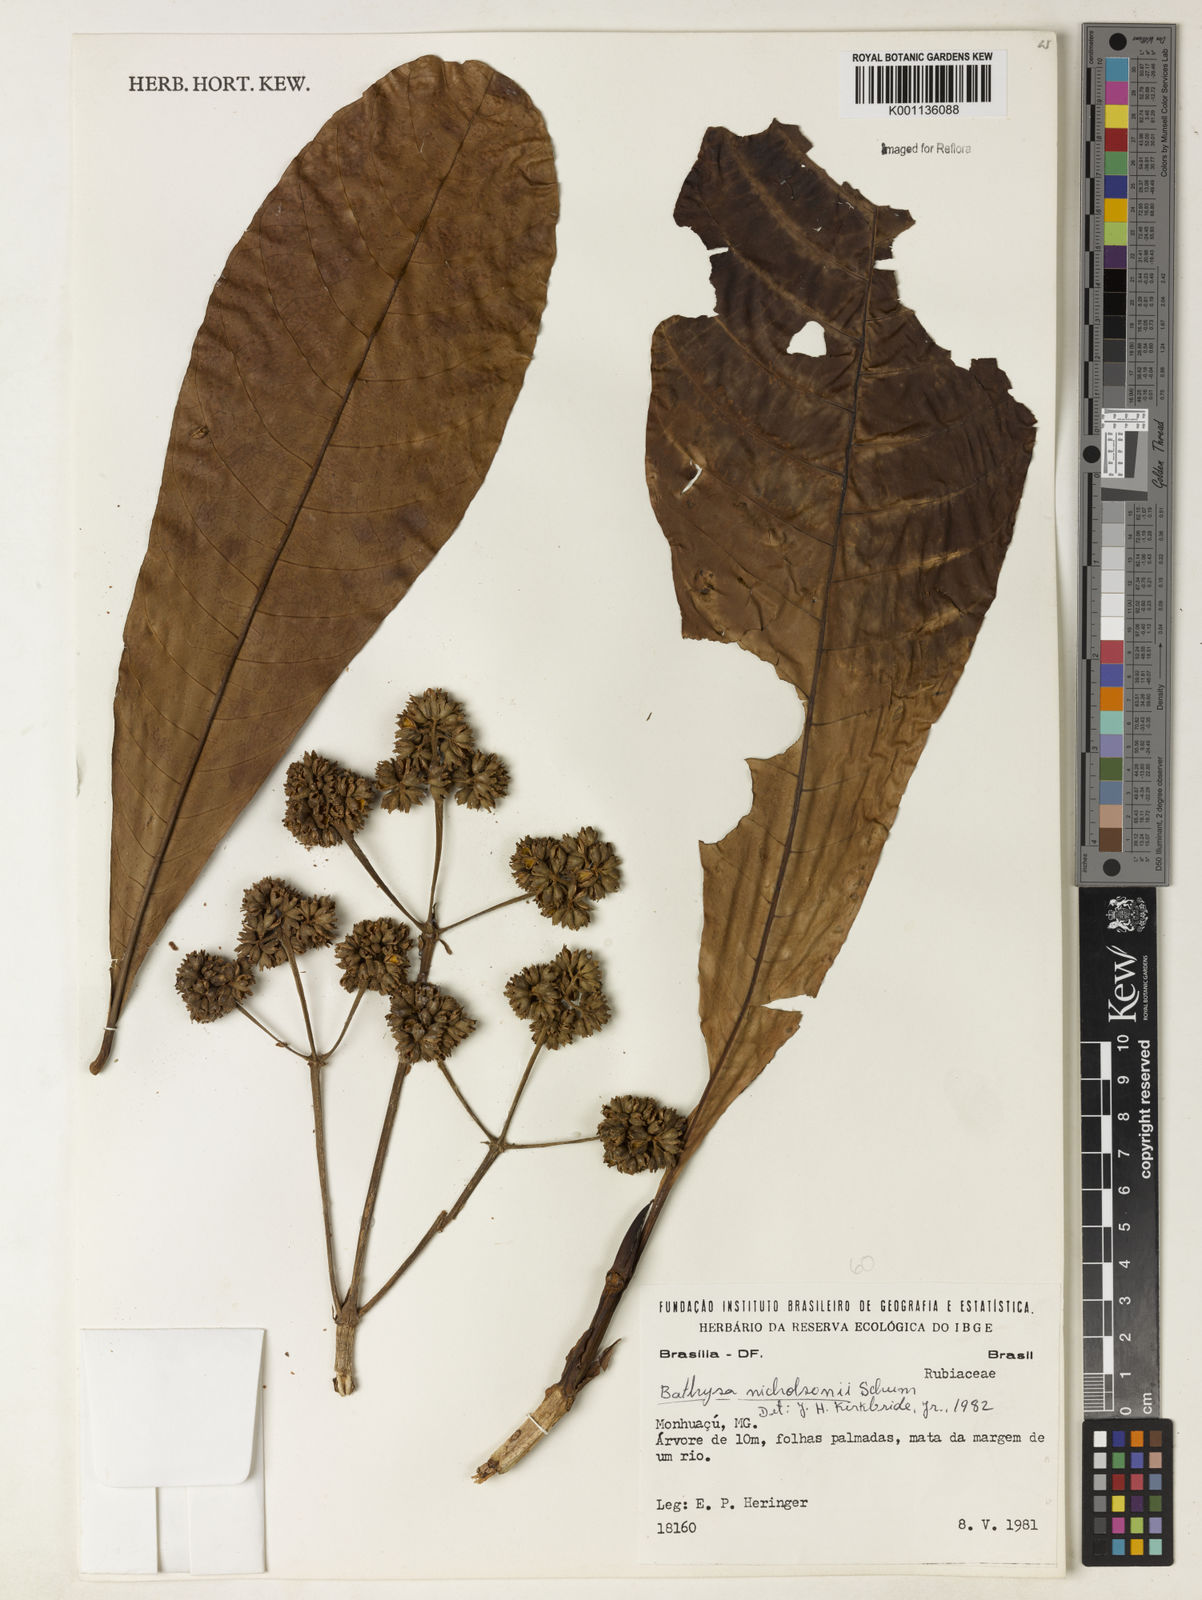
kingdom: Plantae
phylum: Tracheophyta
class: Magnoliopsida
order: Gentianales
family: Rubiaceae
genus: Bathysa
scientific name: Bathysa nicholsonii
